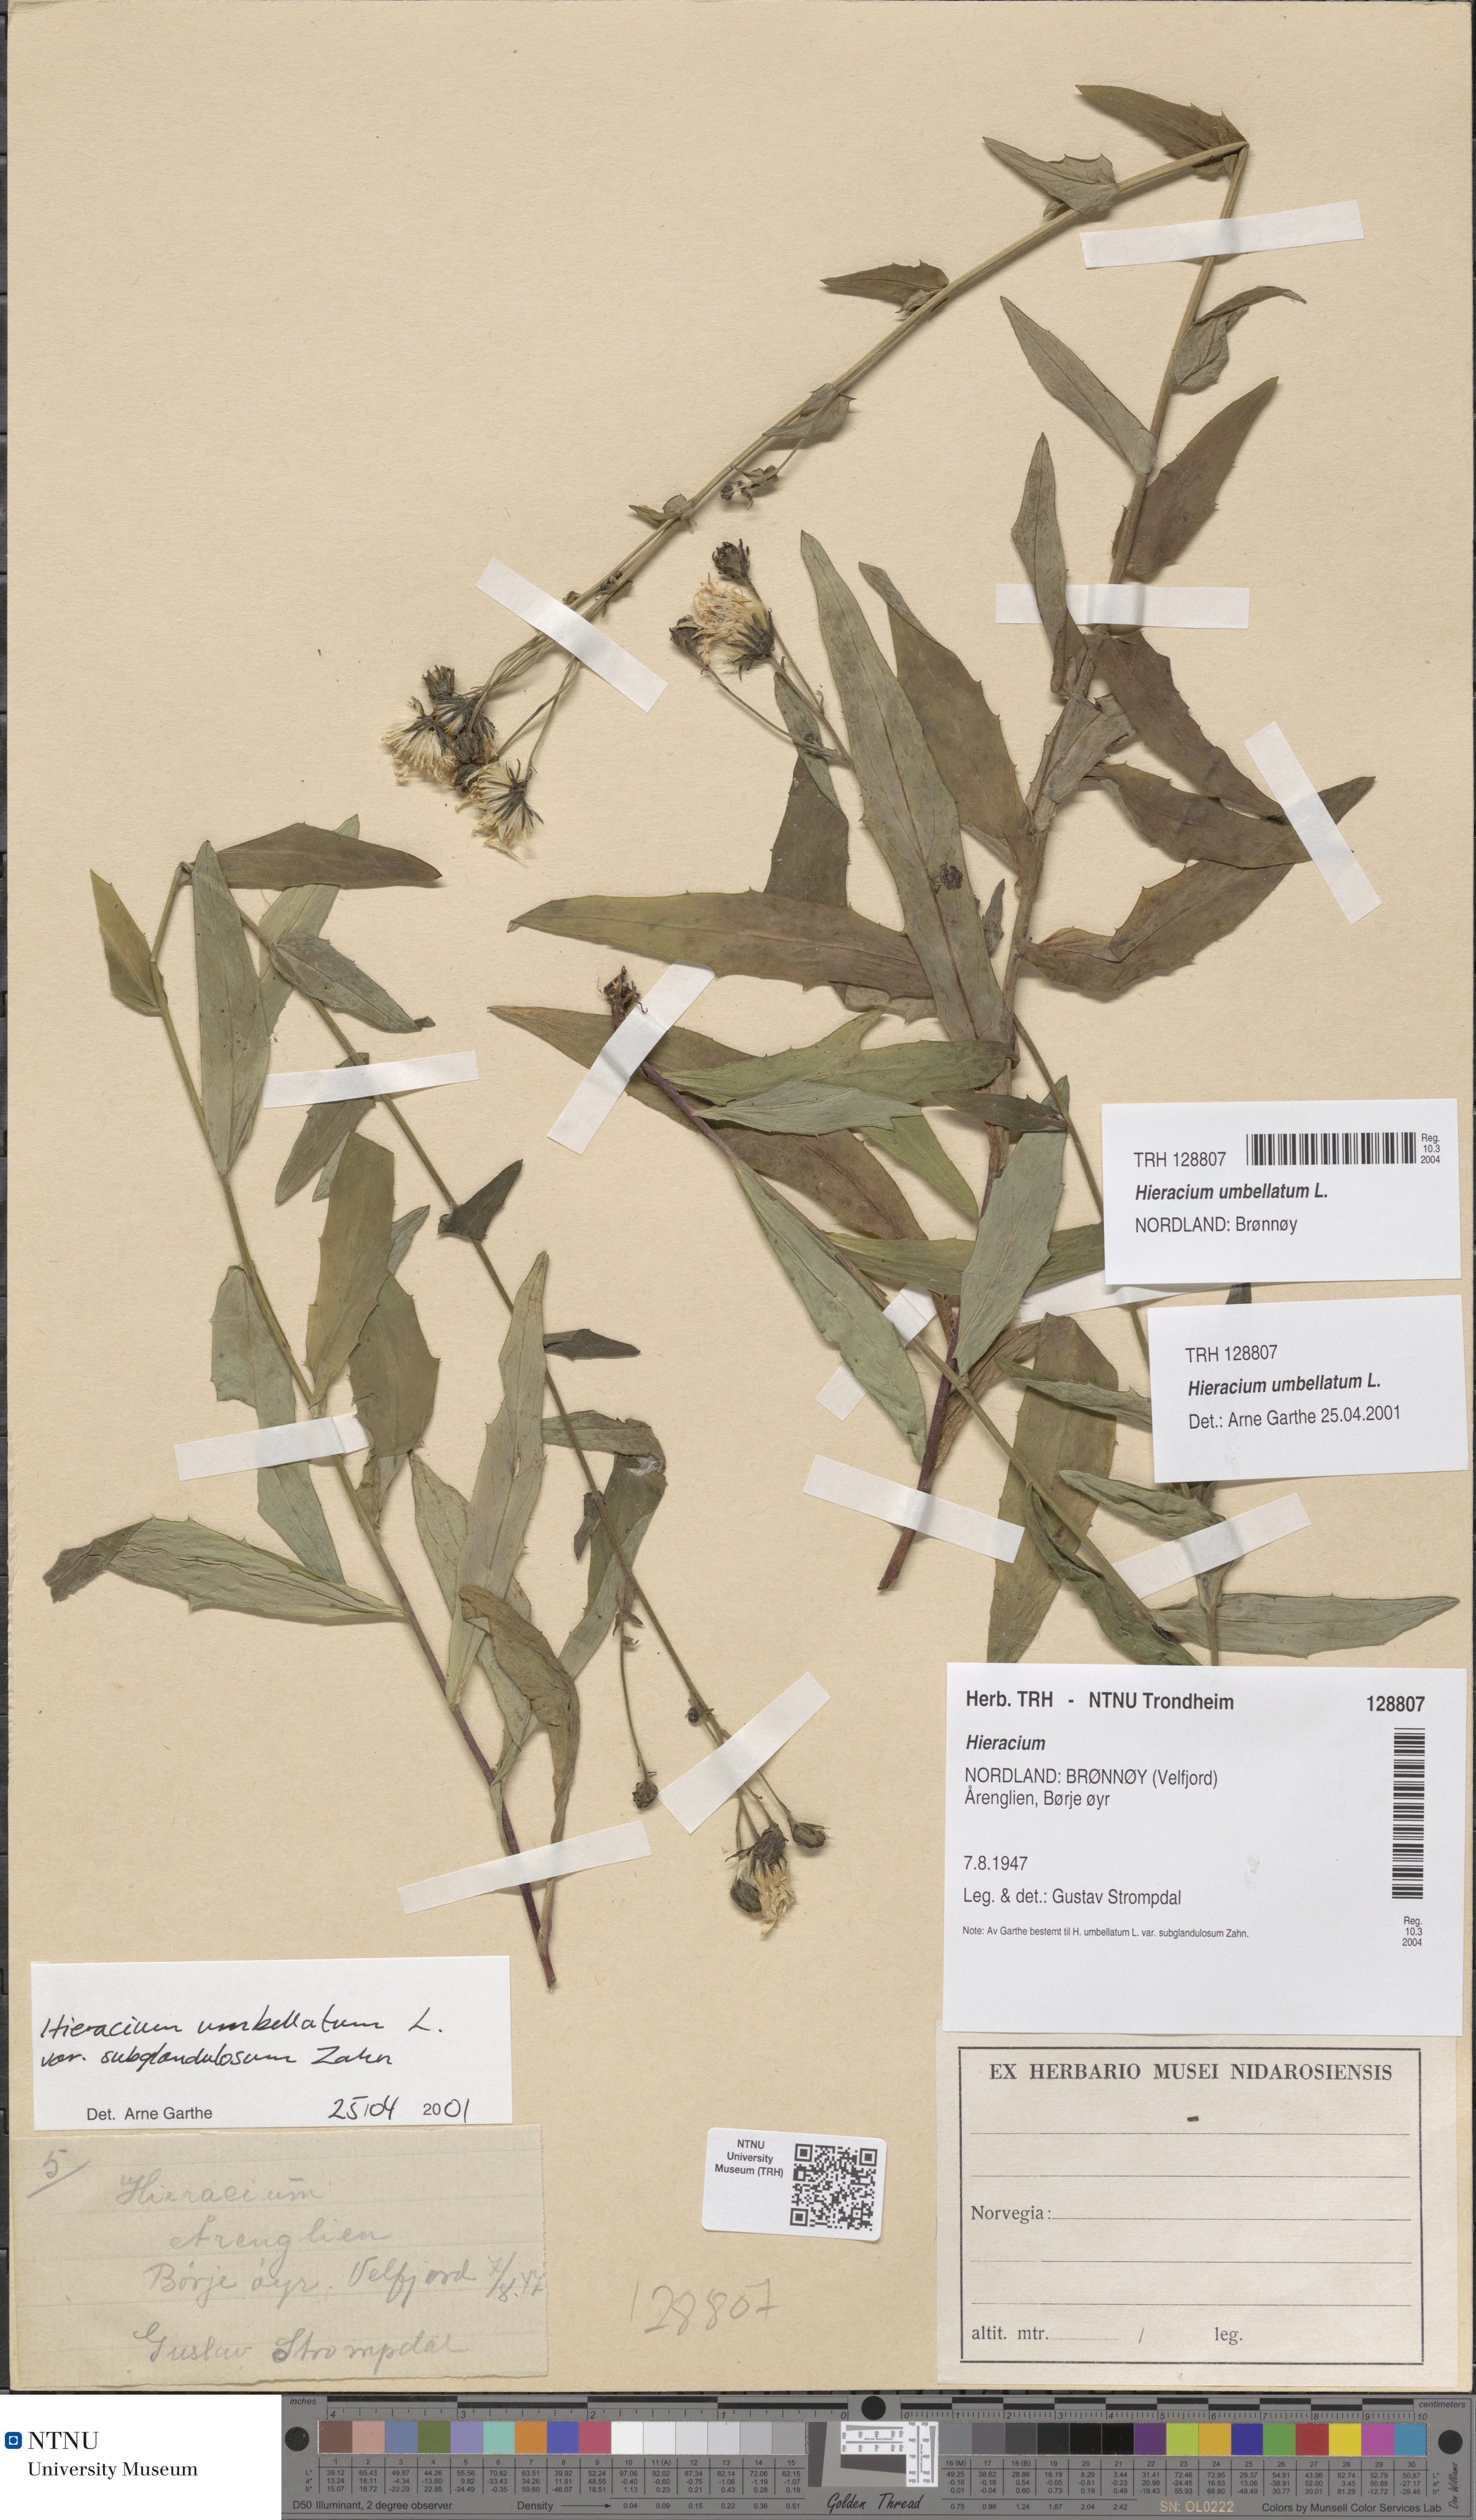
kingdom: Plantae
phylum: Tracheophyta
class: Magnoliopsida
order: Asterales
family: Asteraceae
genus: Hieracium
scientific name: Hieracium umbellatum
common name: Northern hawkweed
